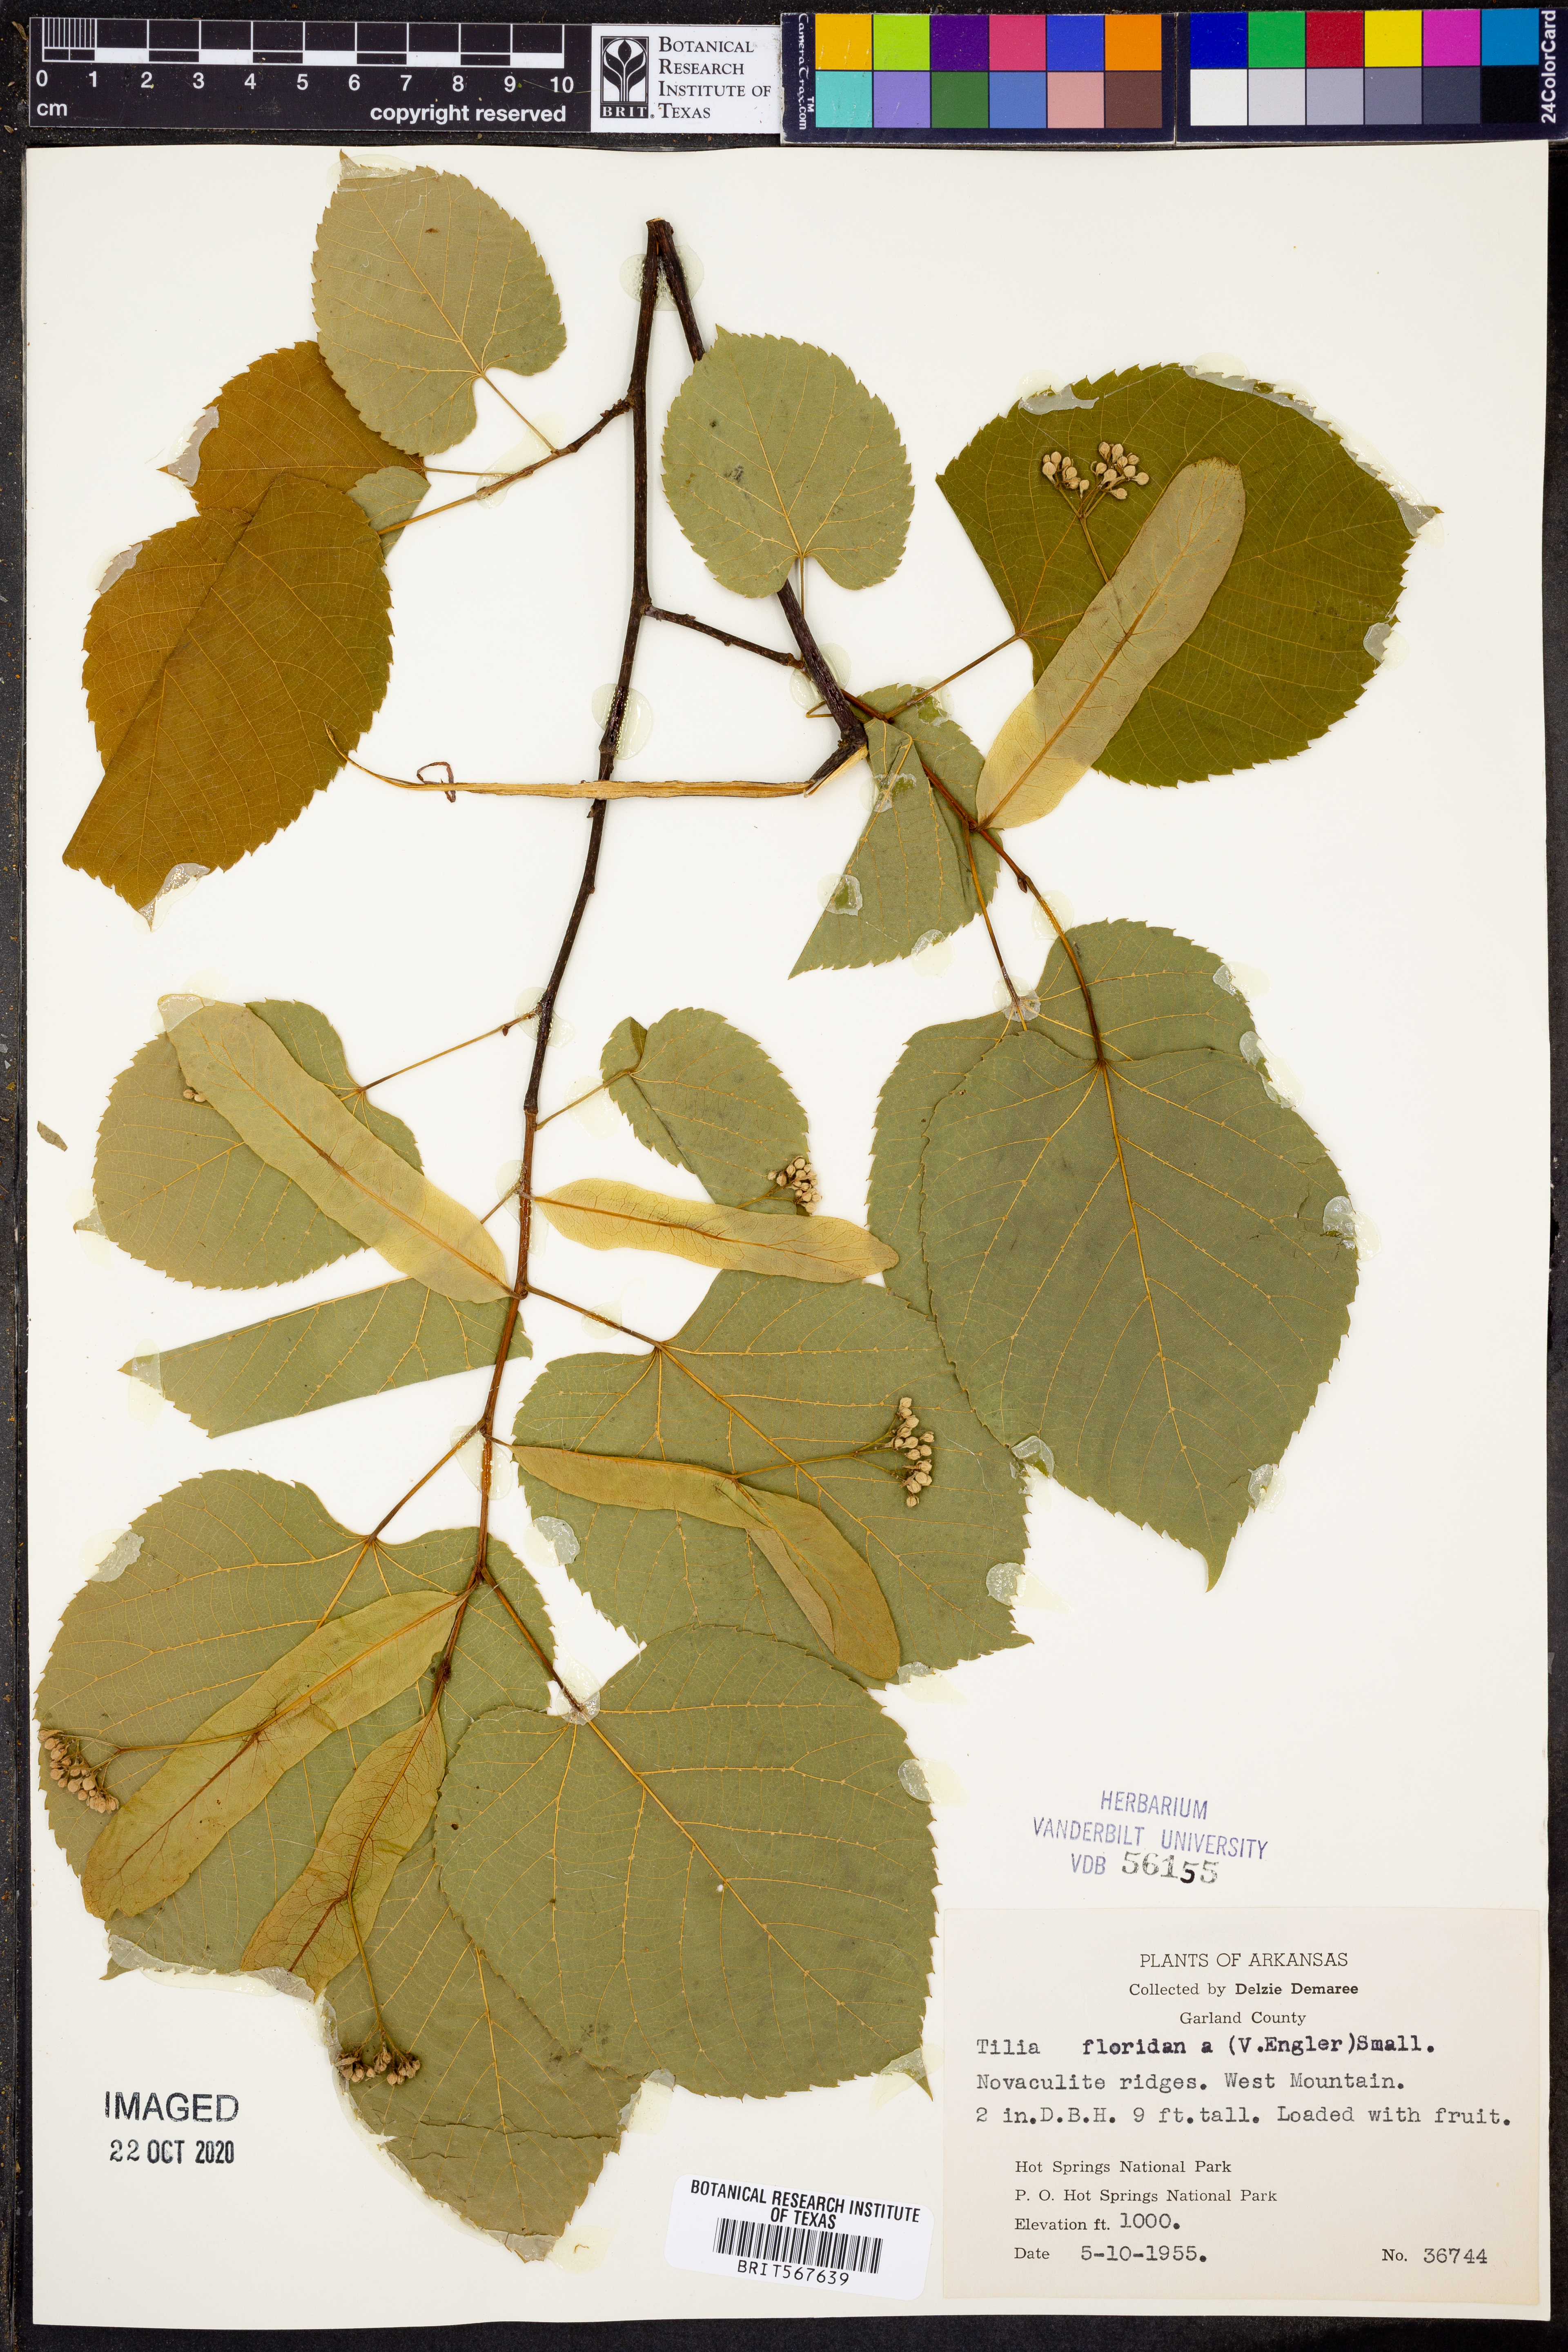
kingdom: Plantae
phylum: Tracheophyta
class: Magnoliopsida
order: Malvales
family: Malvaceae
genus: Tilia
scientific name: Tilia americana
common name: Basswood
